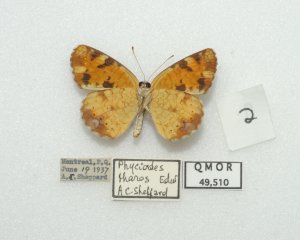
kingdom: Animalia
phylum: Arthropoda
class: Insecta
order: Lepidoptera
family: Nymphalidae
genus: Phyciodes
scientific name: Phyciodes tharos
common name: Northern Crescent
